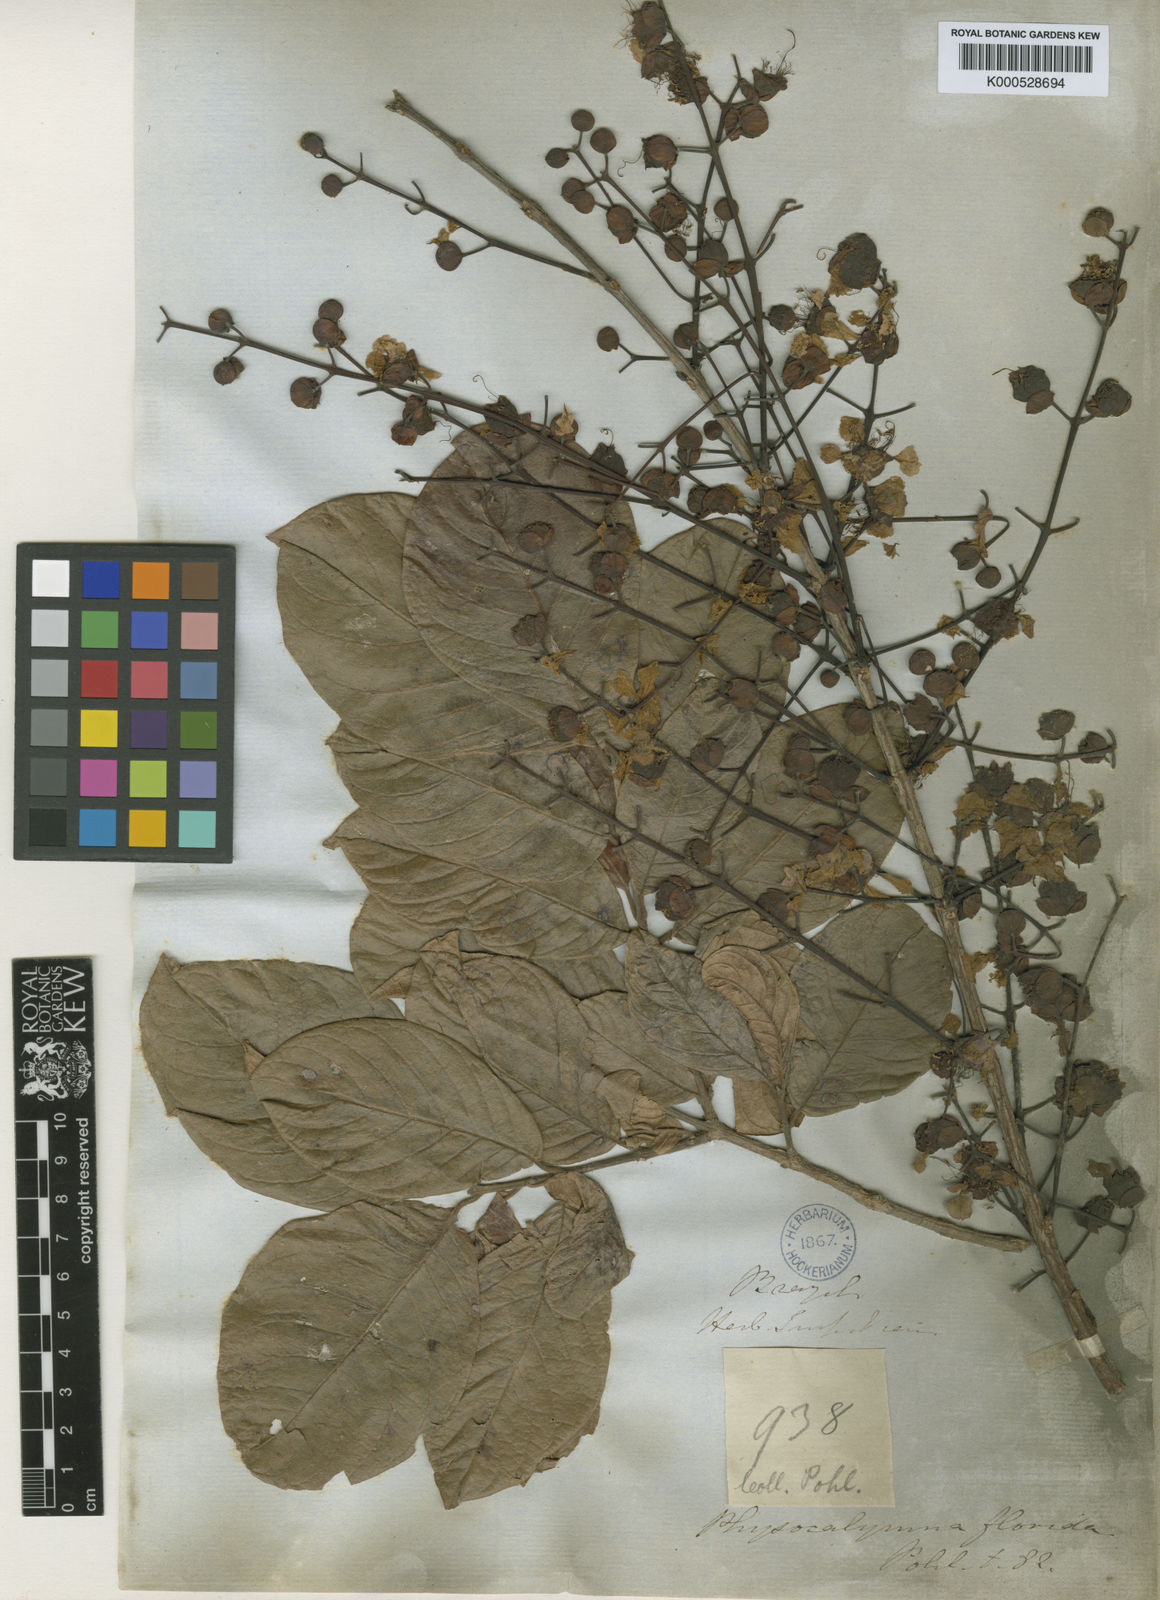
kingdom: Plantae
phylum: Tracheophyta
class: Magnoliopsida
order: Myrtales
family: Lythraceae
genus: Physocalymma
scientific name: Physocalymma scaberrimum
